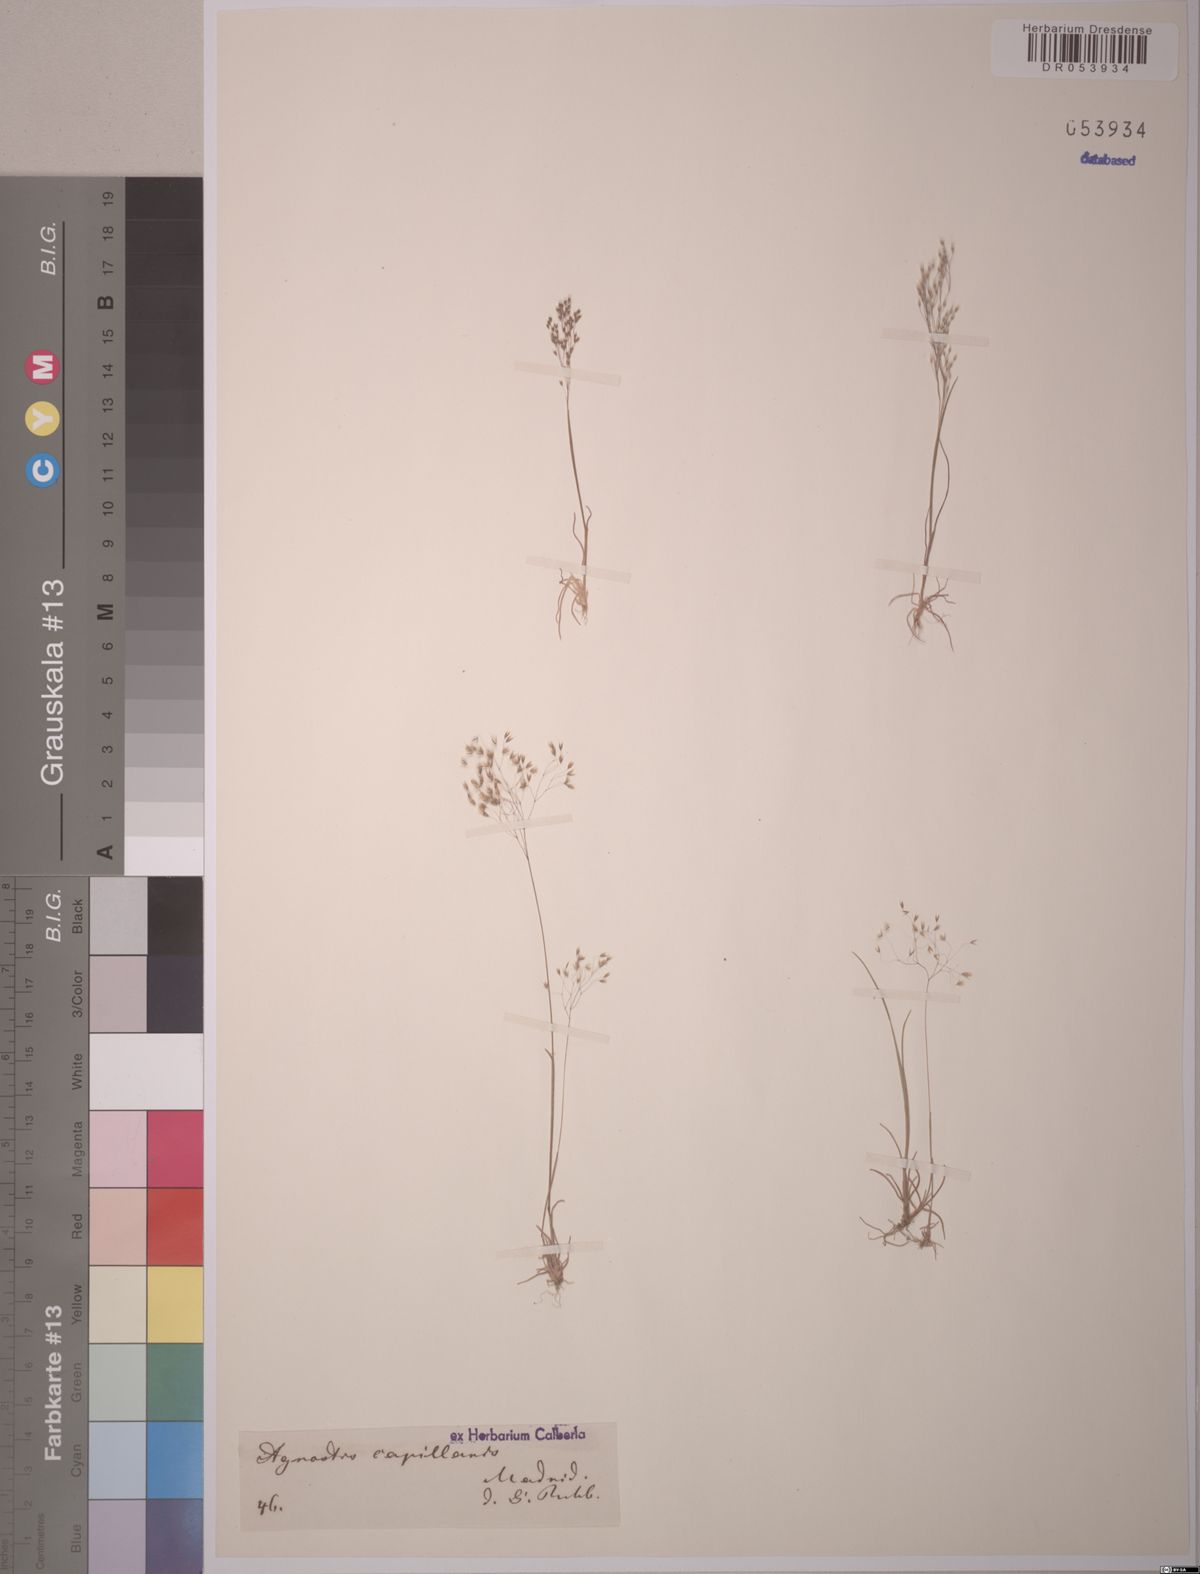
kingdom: Plantae
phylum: Tracheophyta
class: Liliopsida
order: Poales
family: Poaceae
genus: Agrostis
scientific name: Agrostis capillaris
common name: Colonial bentgrass
